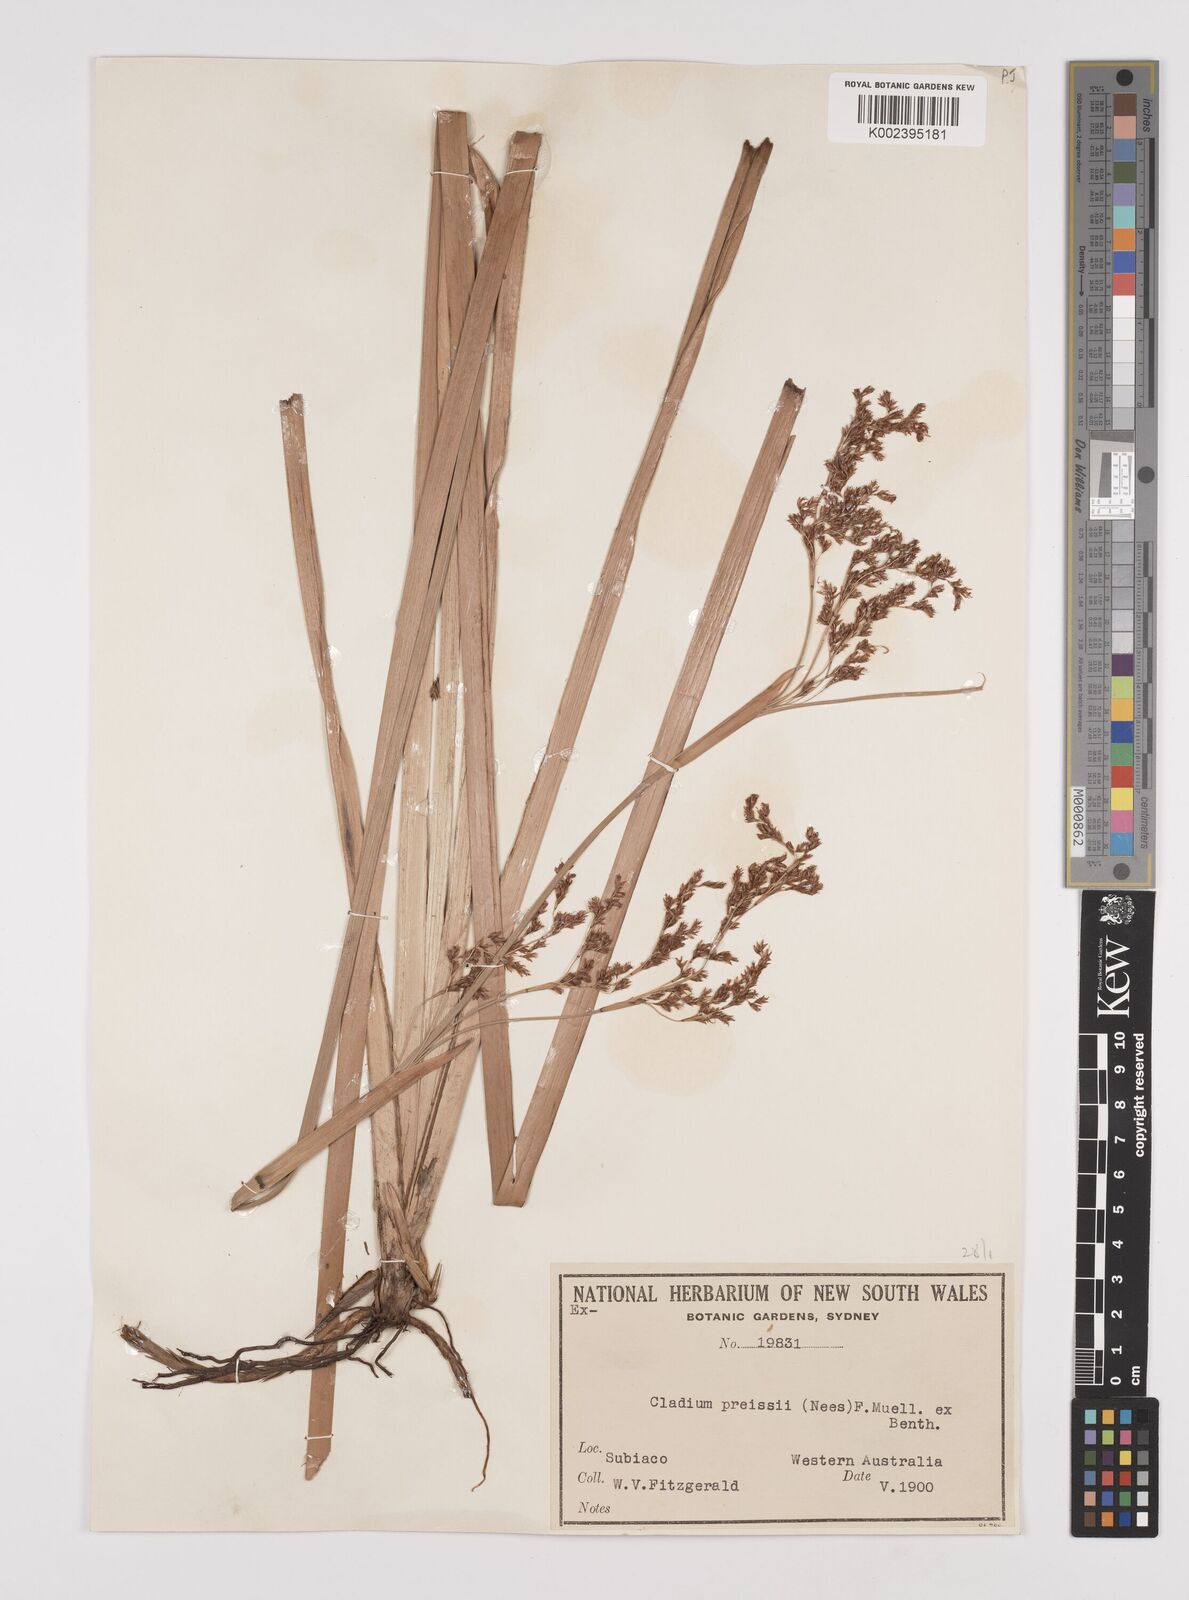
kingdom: Plantae
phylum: Tracheophyta
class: Liliopsida
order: Poales
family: Cyperaceae
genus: Machaerina
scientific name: Machaerina preissii
